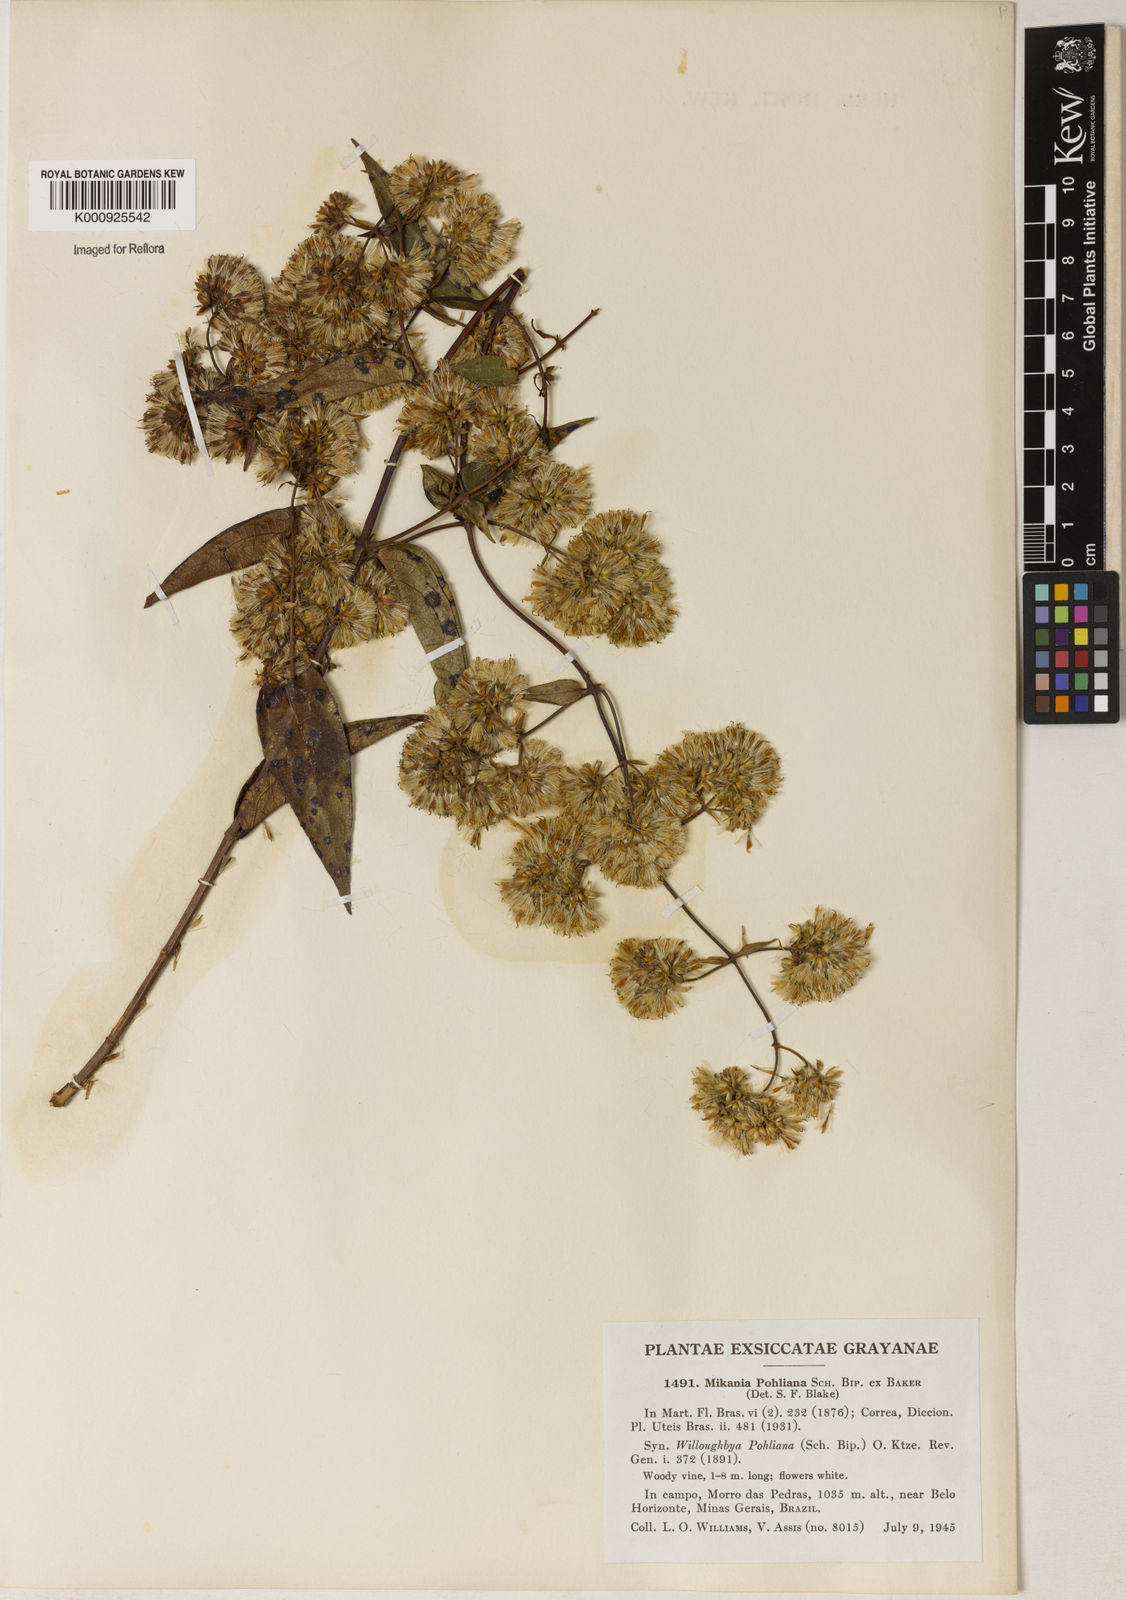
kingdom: Plantae
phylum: Tracheophyta
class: Magnoliopsida
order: Asterales
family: Asteraceae
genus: Mikania
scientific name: Mikania
